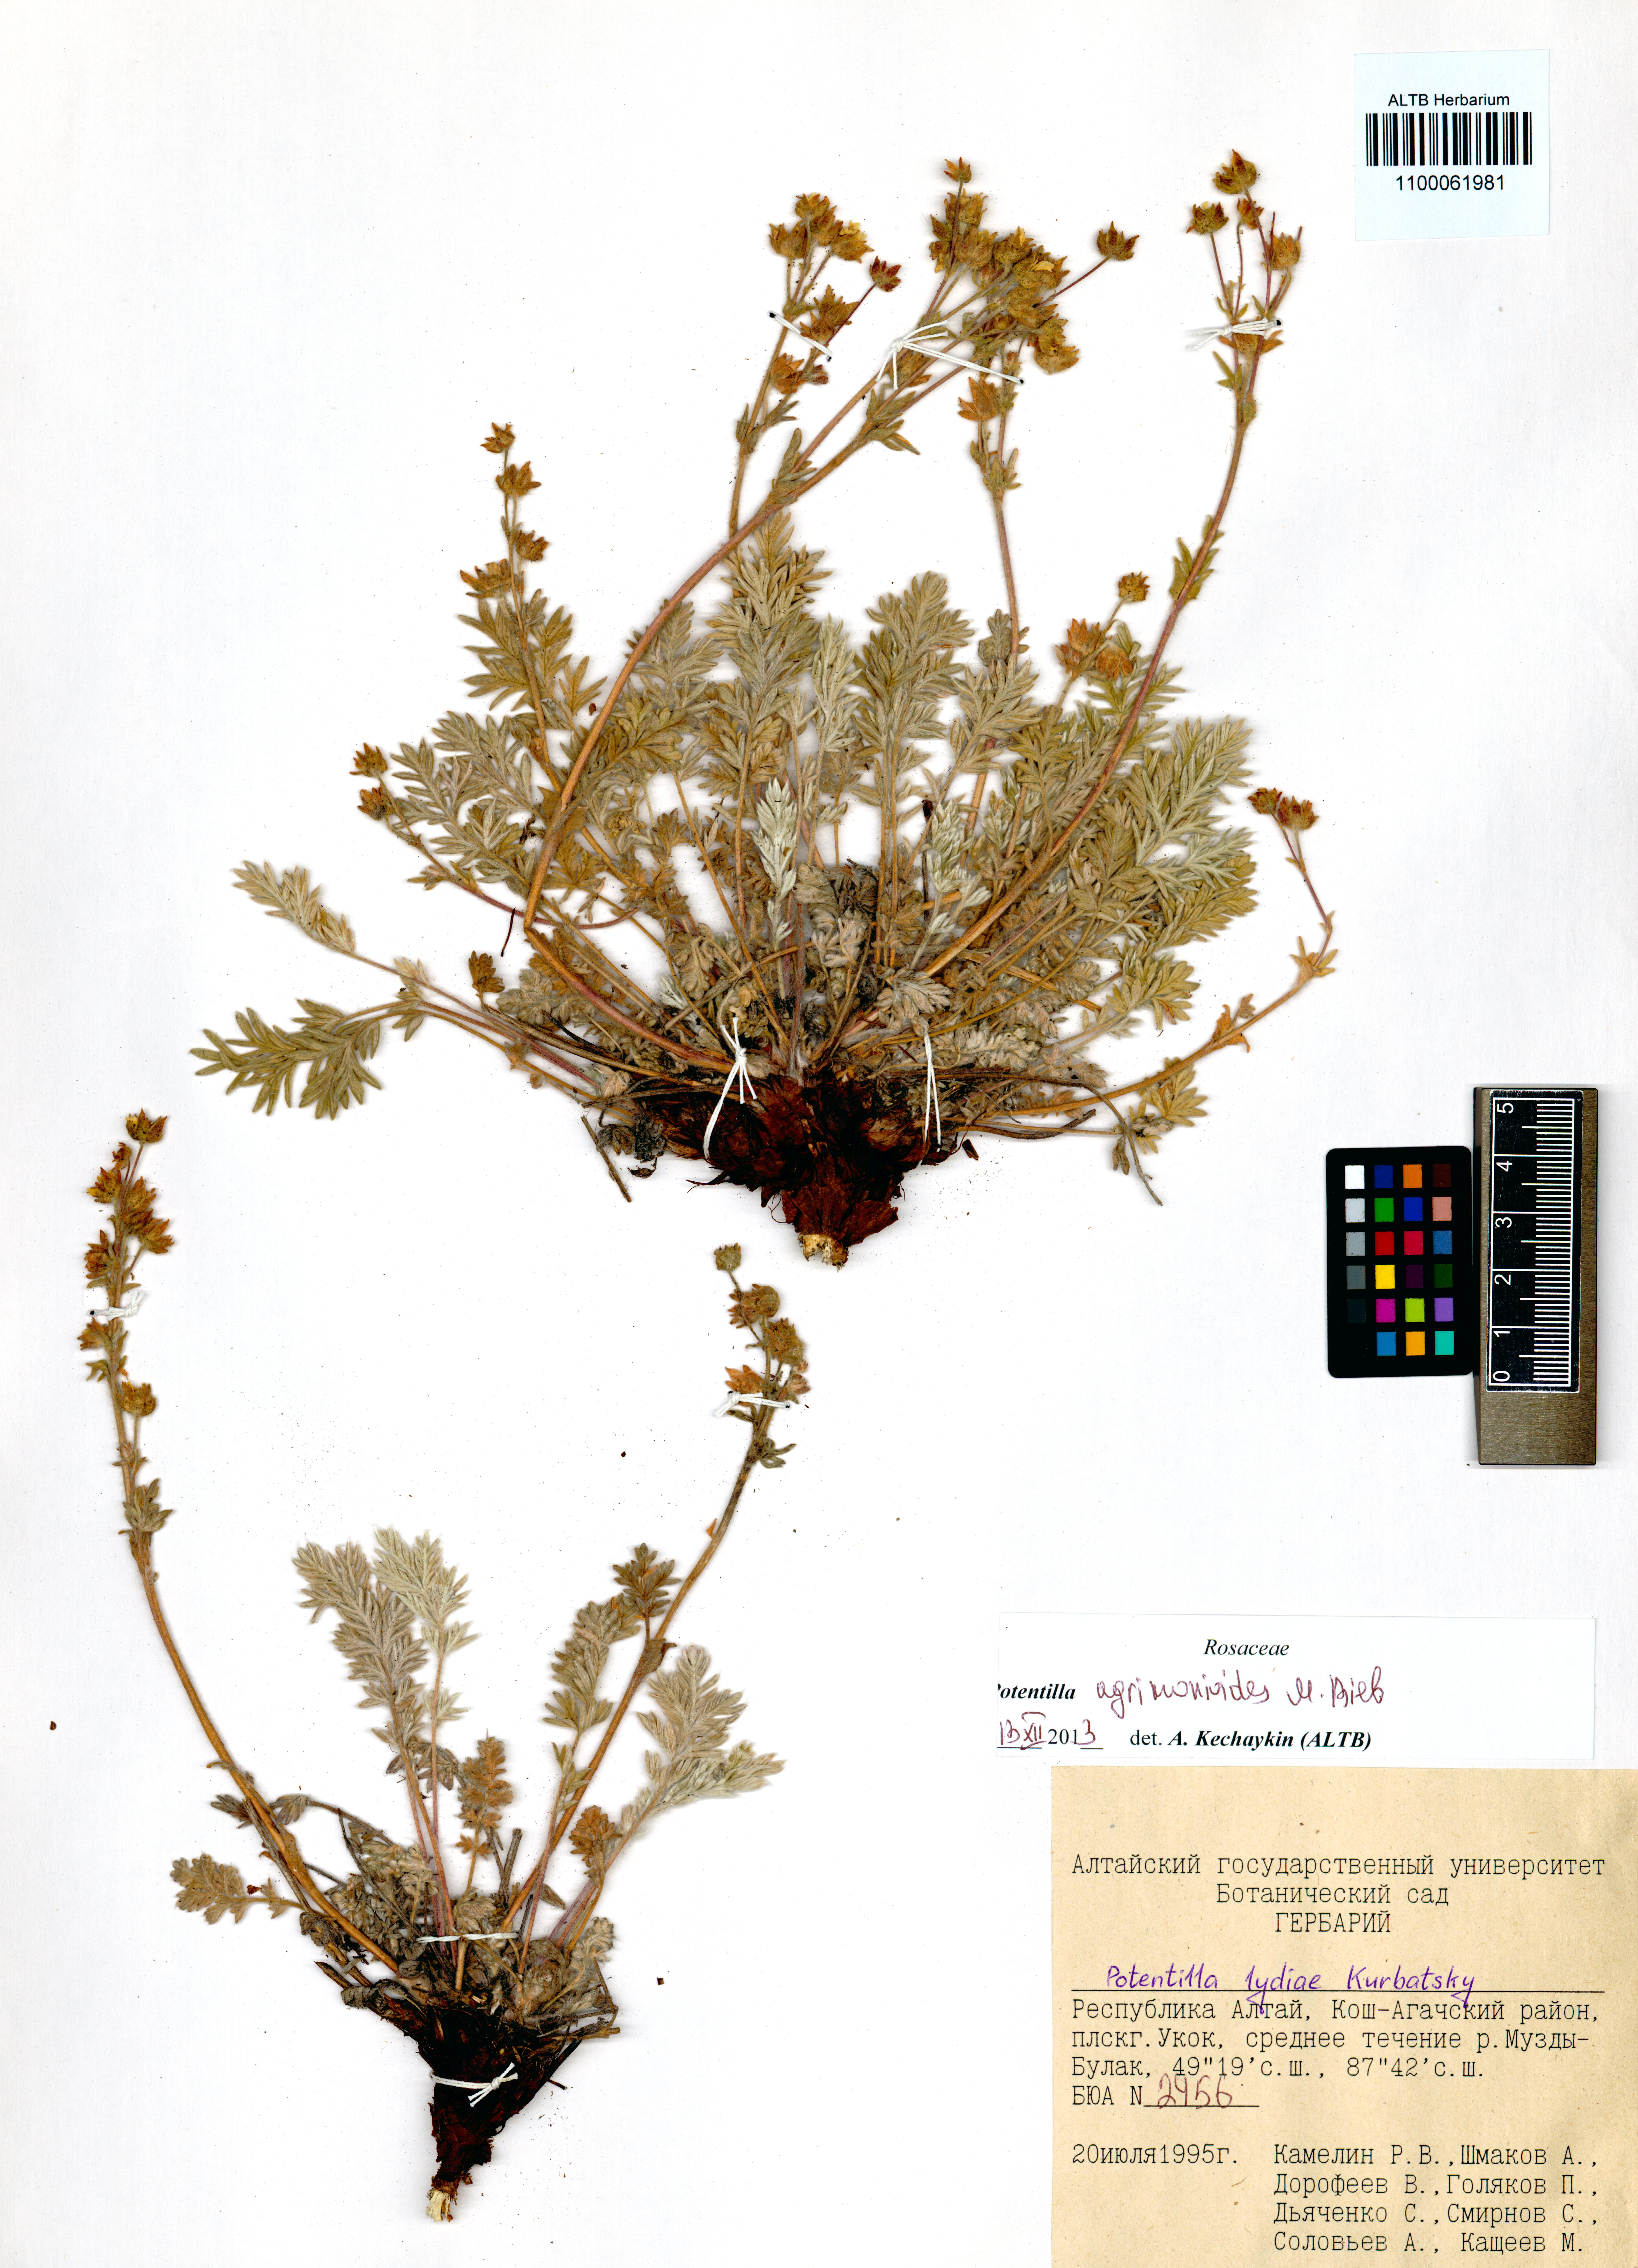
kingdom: Plantae
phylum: Tracheophyta
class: Magnoliopsida
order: Rosales
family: Rosaceae
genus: Potentilla
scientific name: Potentilla agrimonioides
